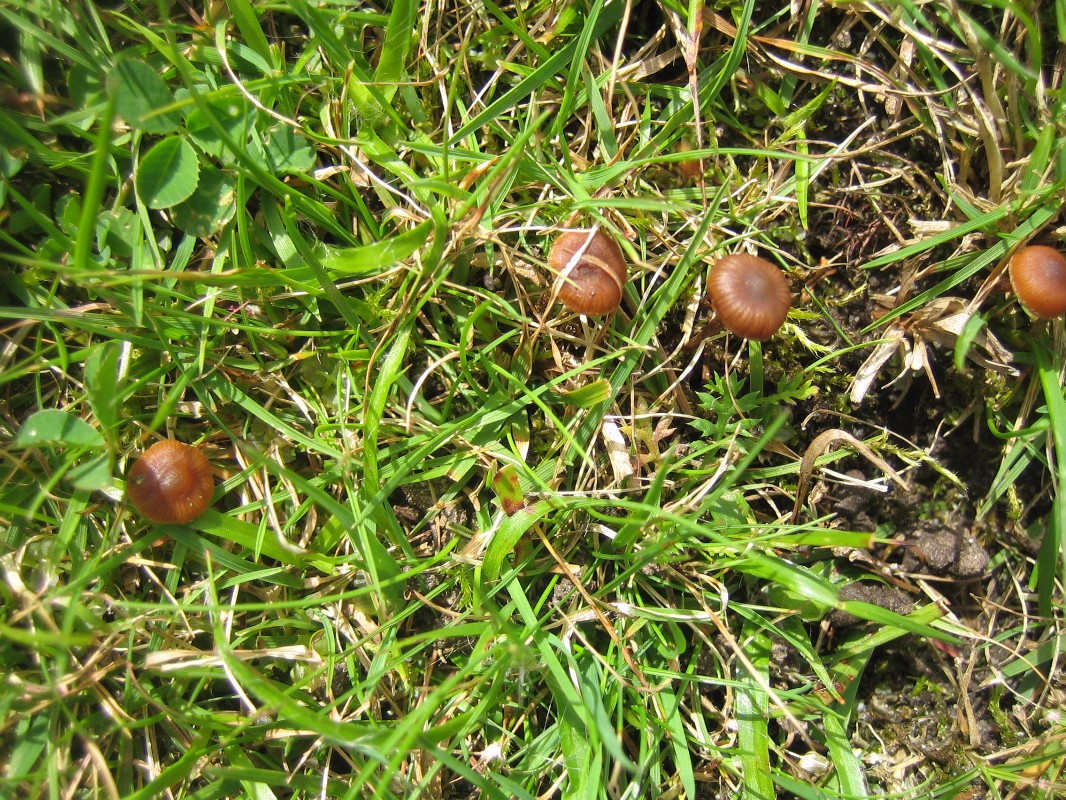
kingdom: Fungi
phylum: Basidiomycota
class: Agaricomycetes
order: Agaricales
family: Strophariaceae
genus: Deconica
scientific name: Deconica
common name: stråhat
